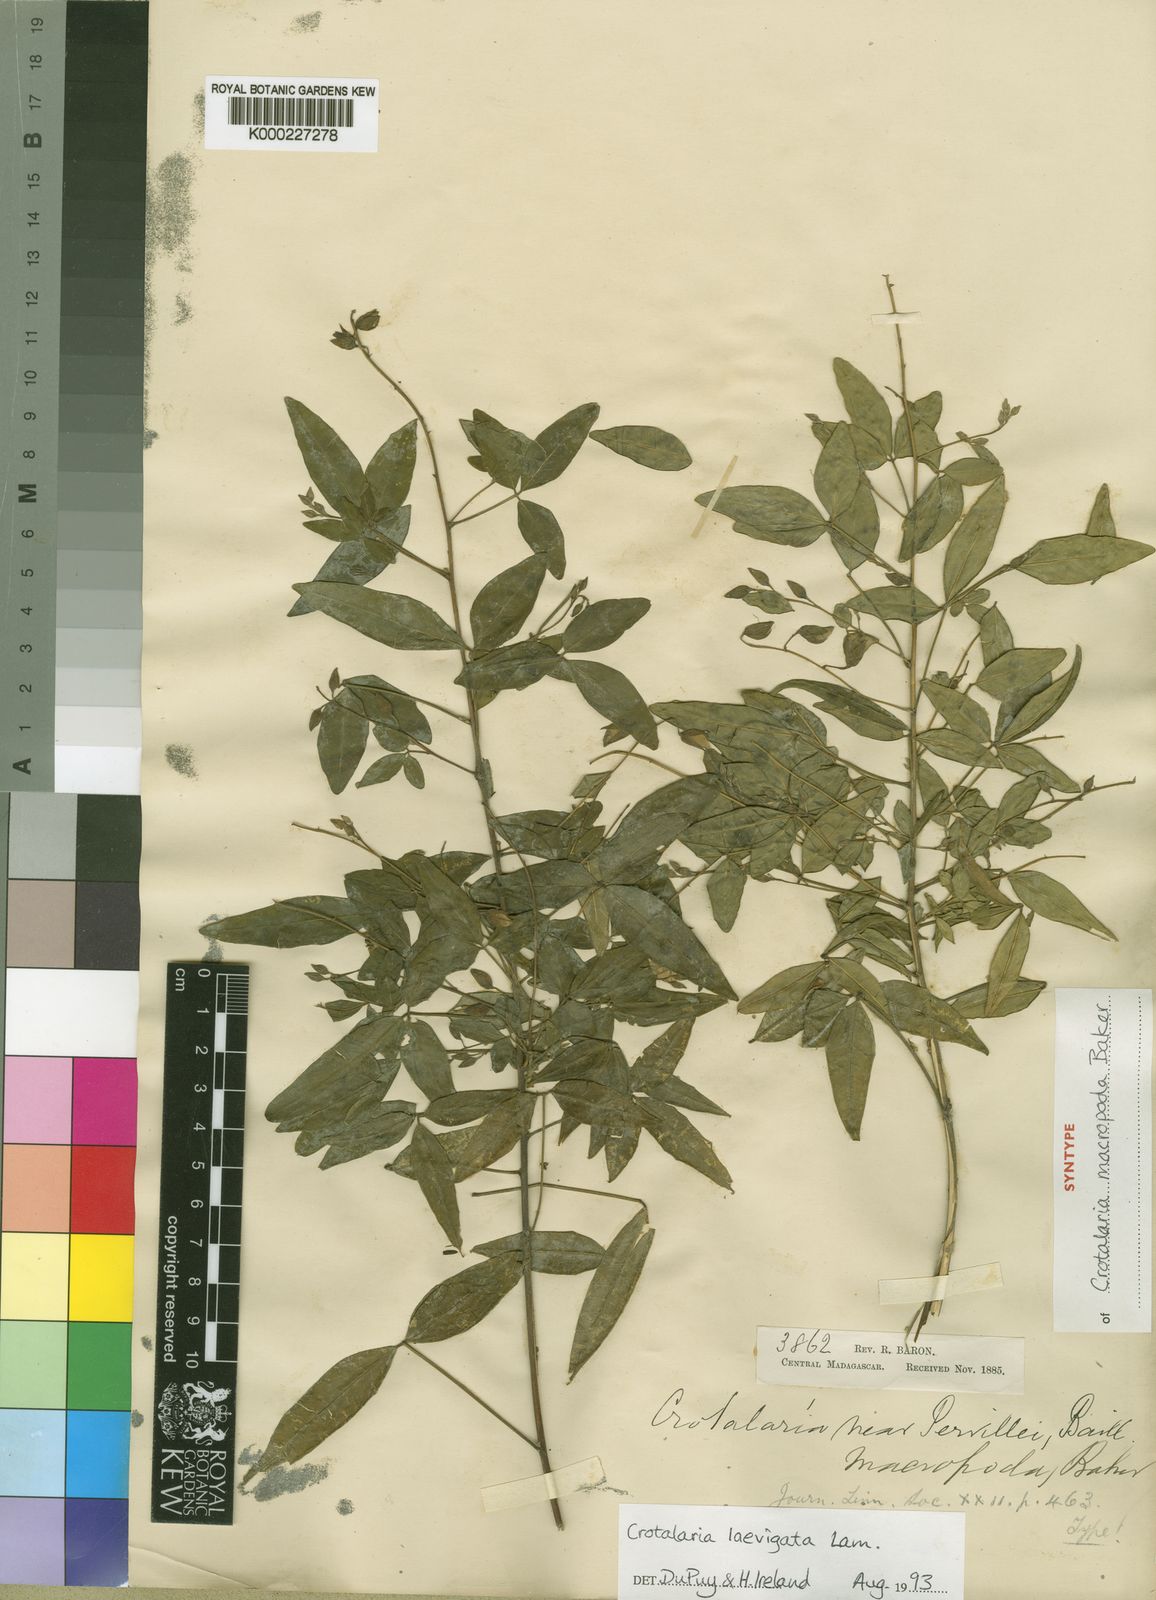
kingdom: Plantae
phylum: Tracheophyta
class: Magnoliopsida
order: Fabales
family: Fabaceae
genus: Crotalaria
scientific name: Crotalaria laevigata
